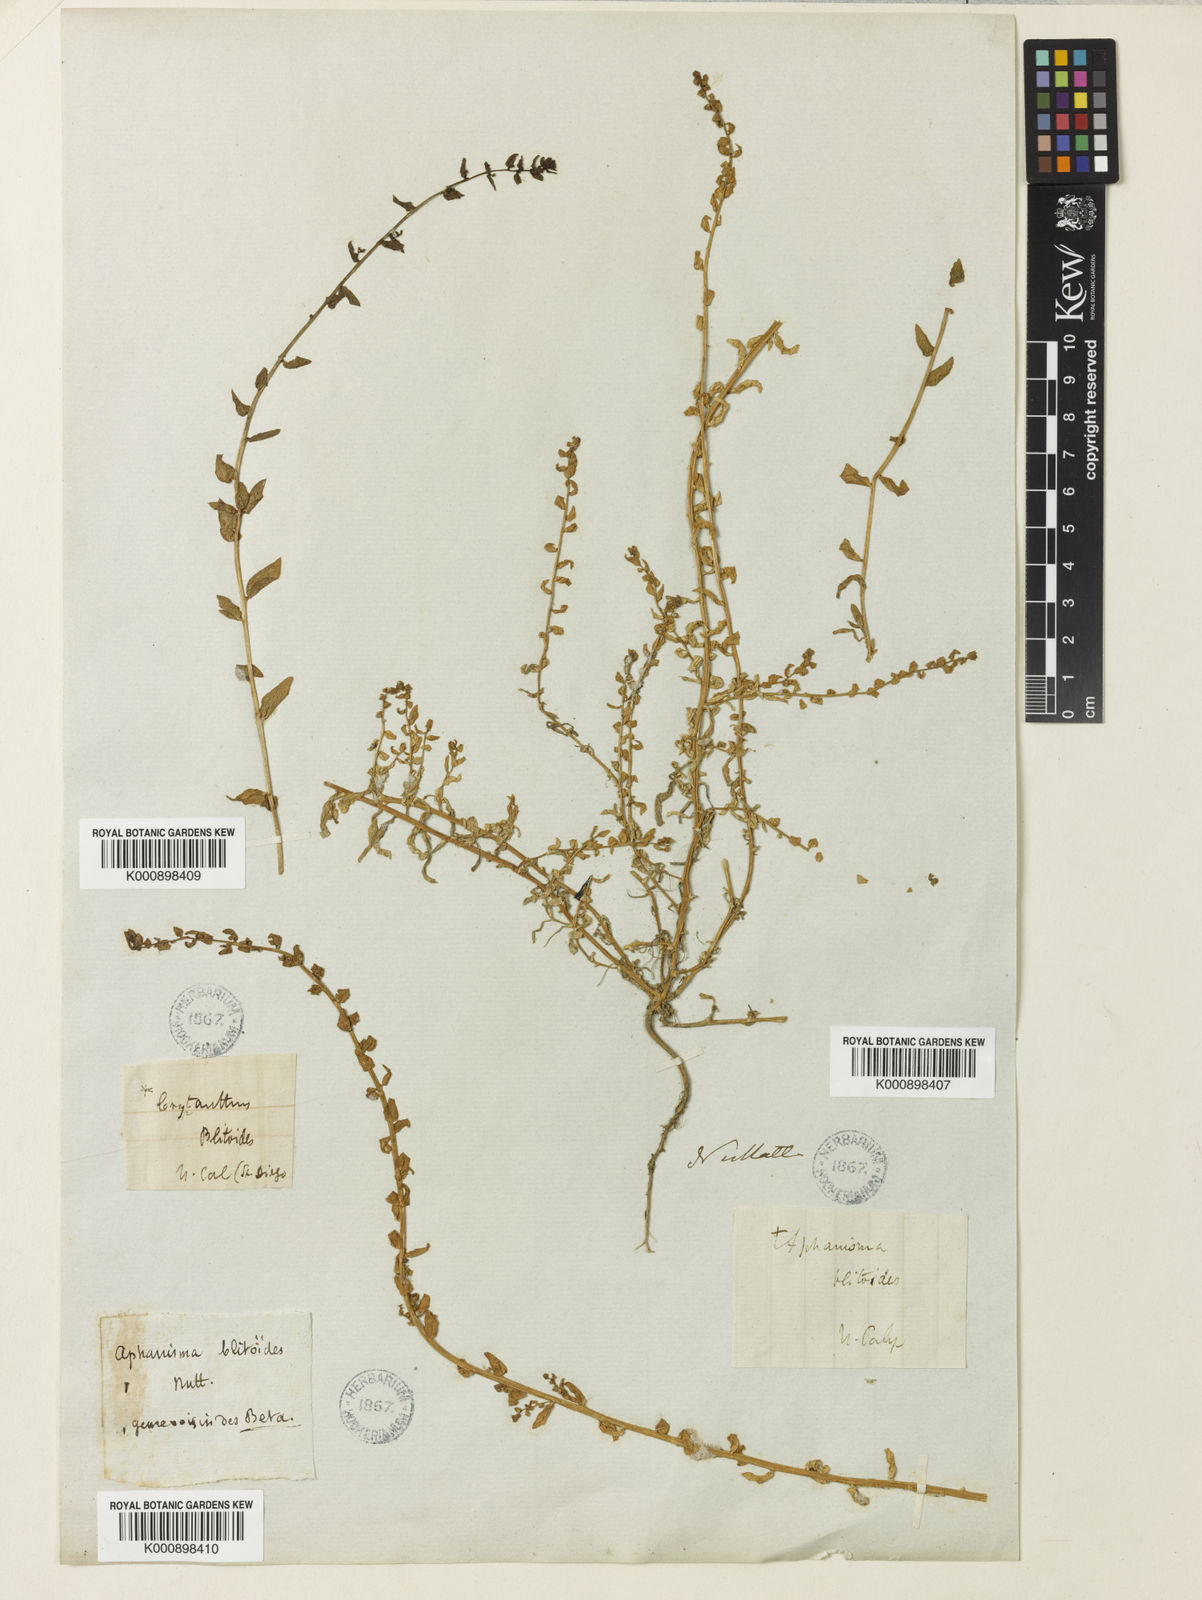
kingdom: Plantae
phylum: Tracheophyta
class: Magnoliopsida
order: Caryophyllales
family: Amaranthaceae
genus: Aphanisma
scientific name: Aphanisma blitoides
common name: Aphanisma
